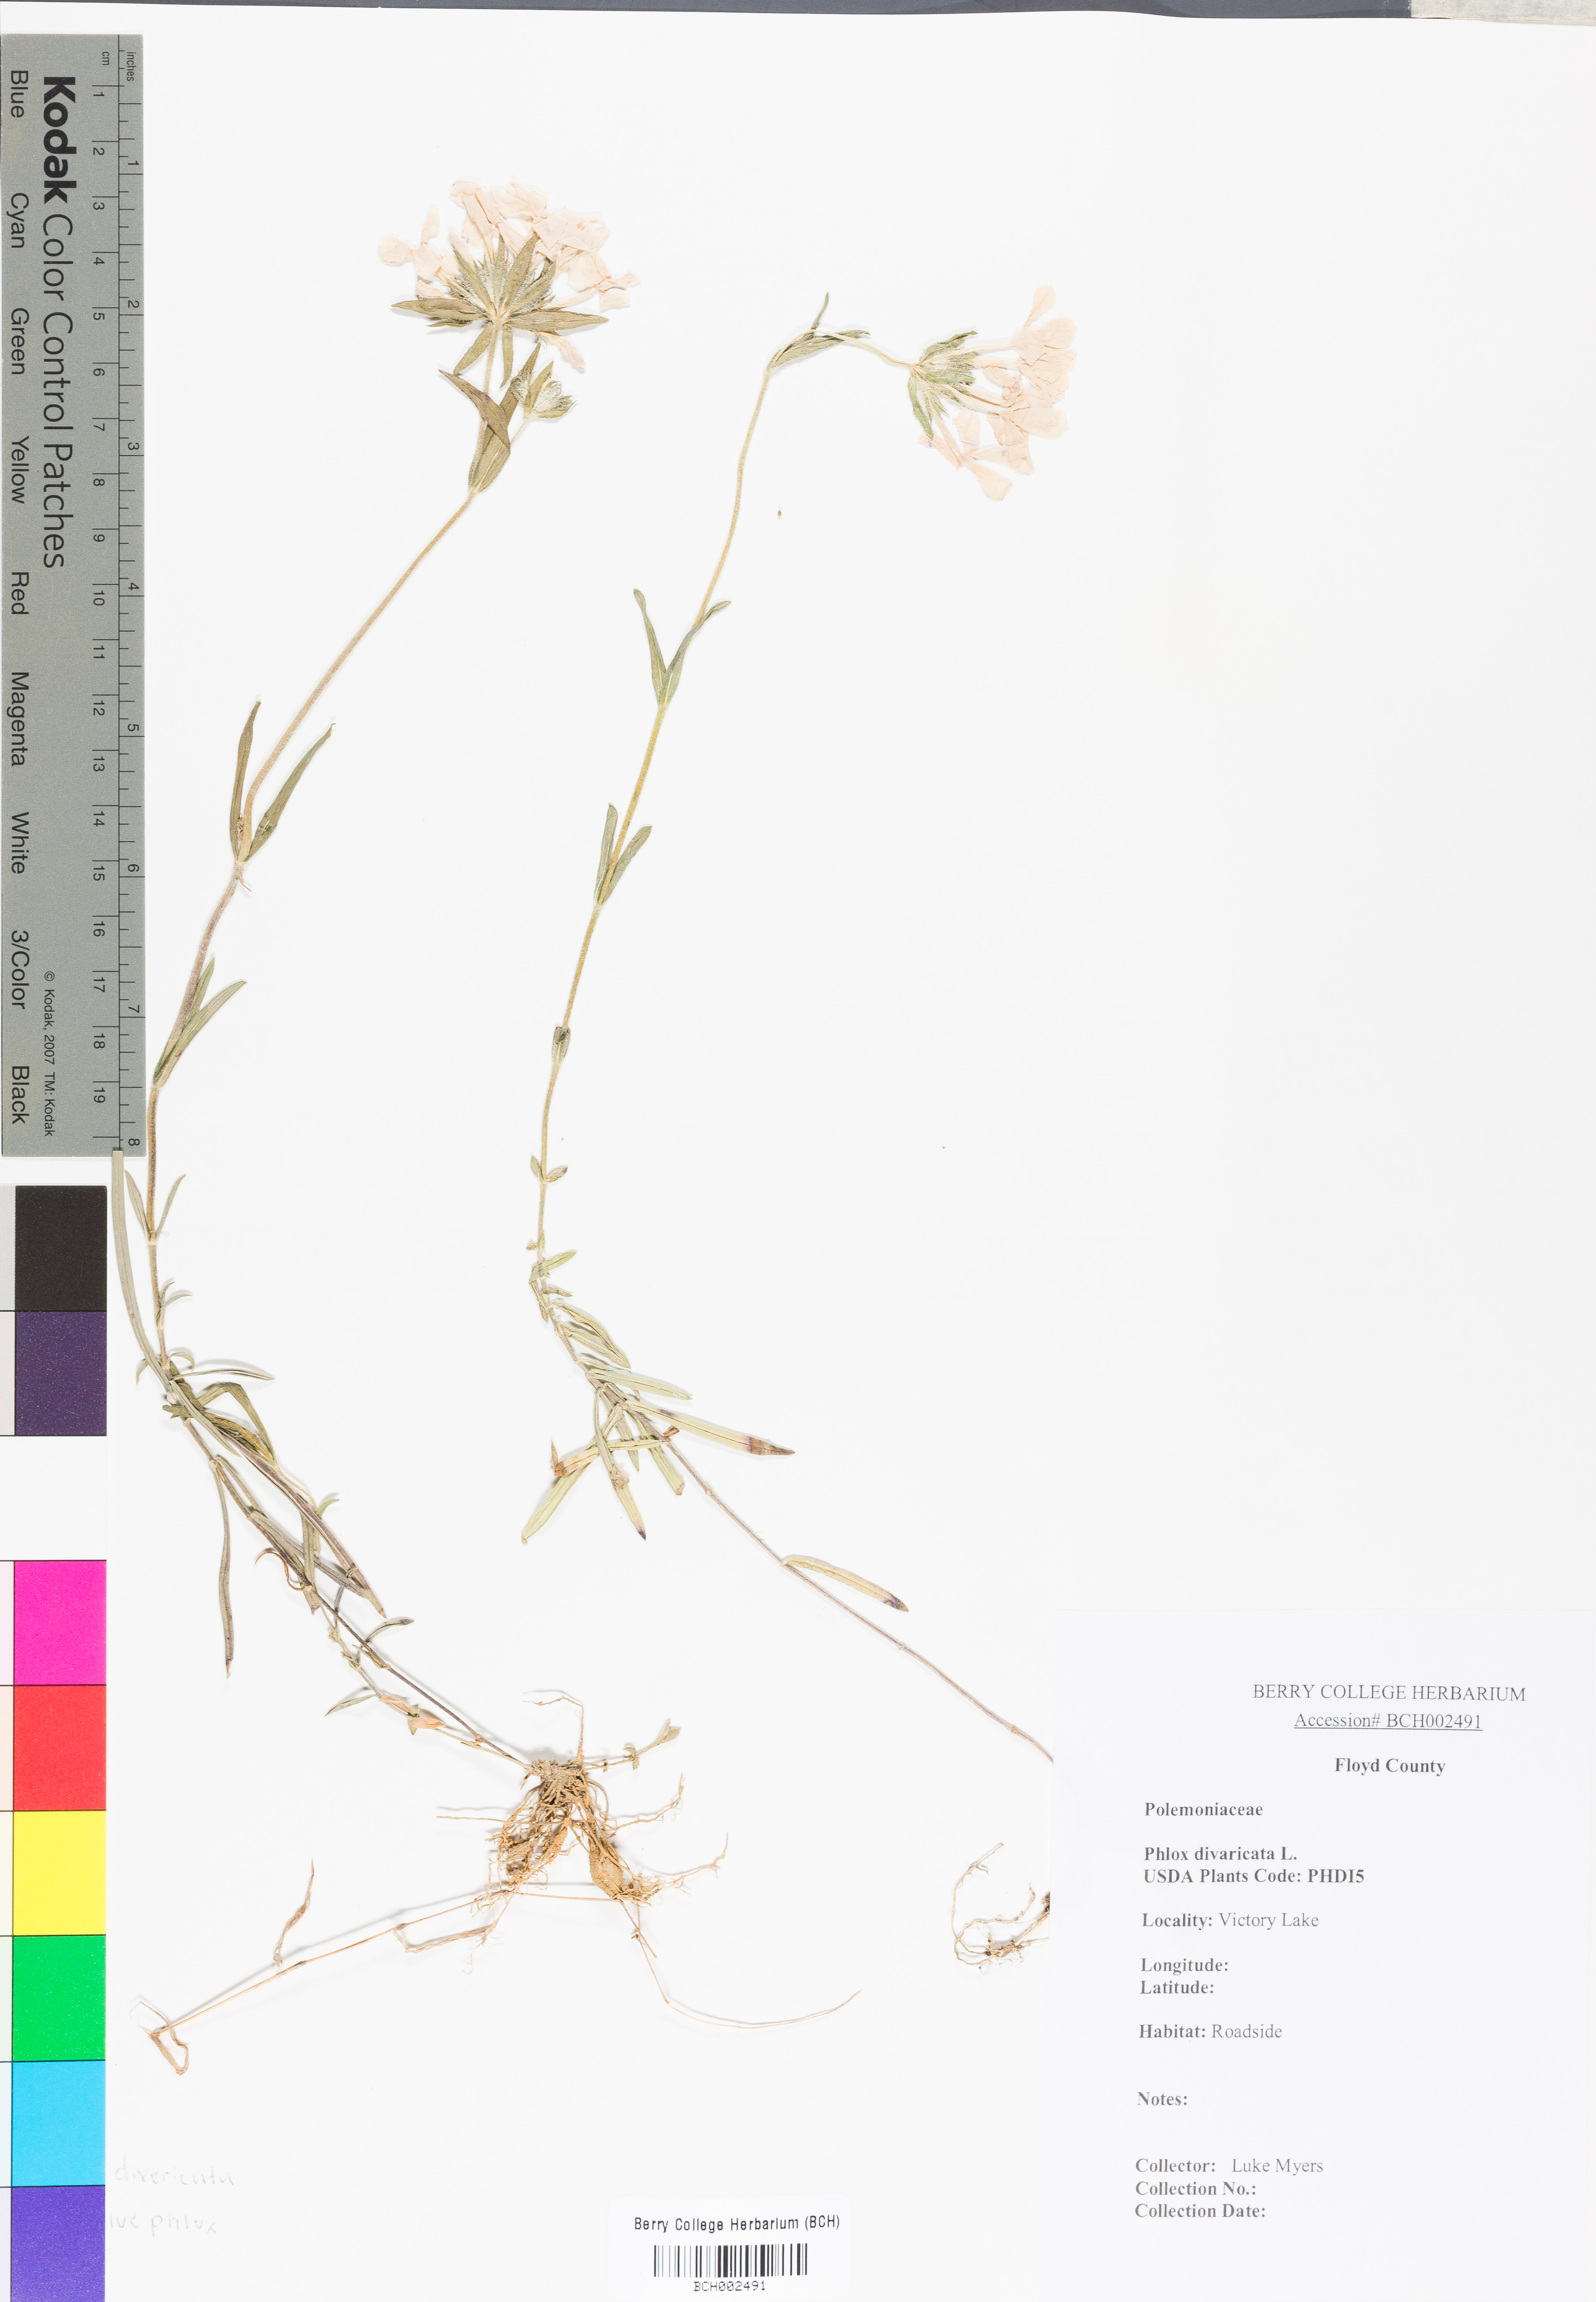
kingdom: Plantae
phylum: Tracheophyta
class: Magnoliopsida
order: Ericales
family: Polemoniaceae
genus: Phlox
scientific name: Phlox divaricata
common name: Blue phlox
